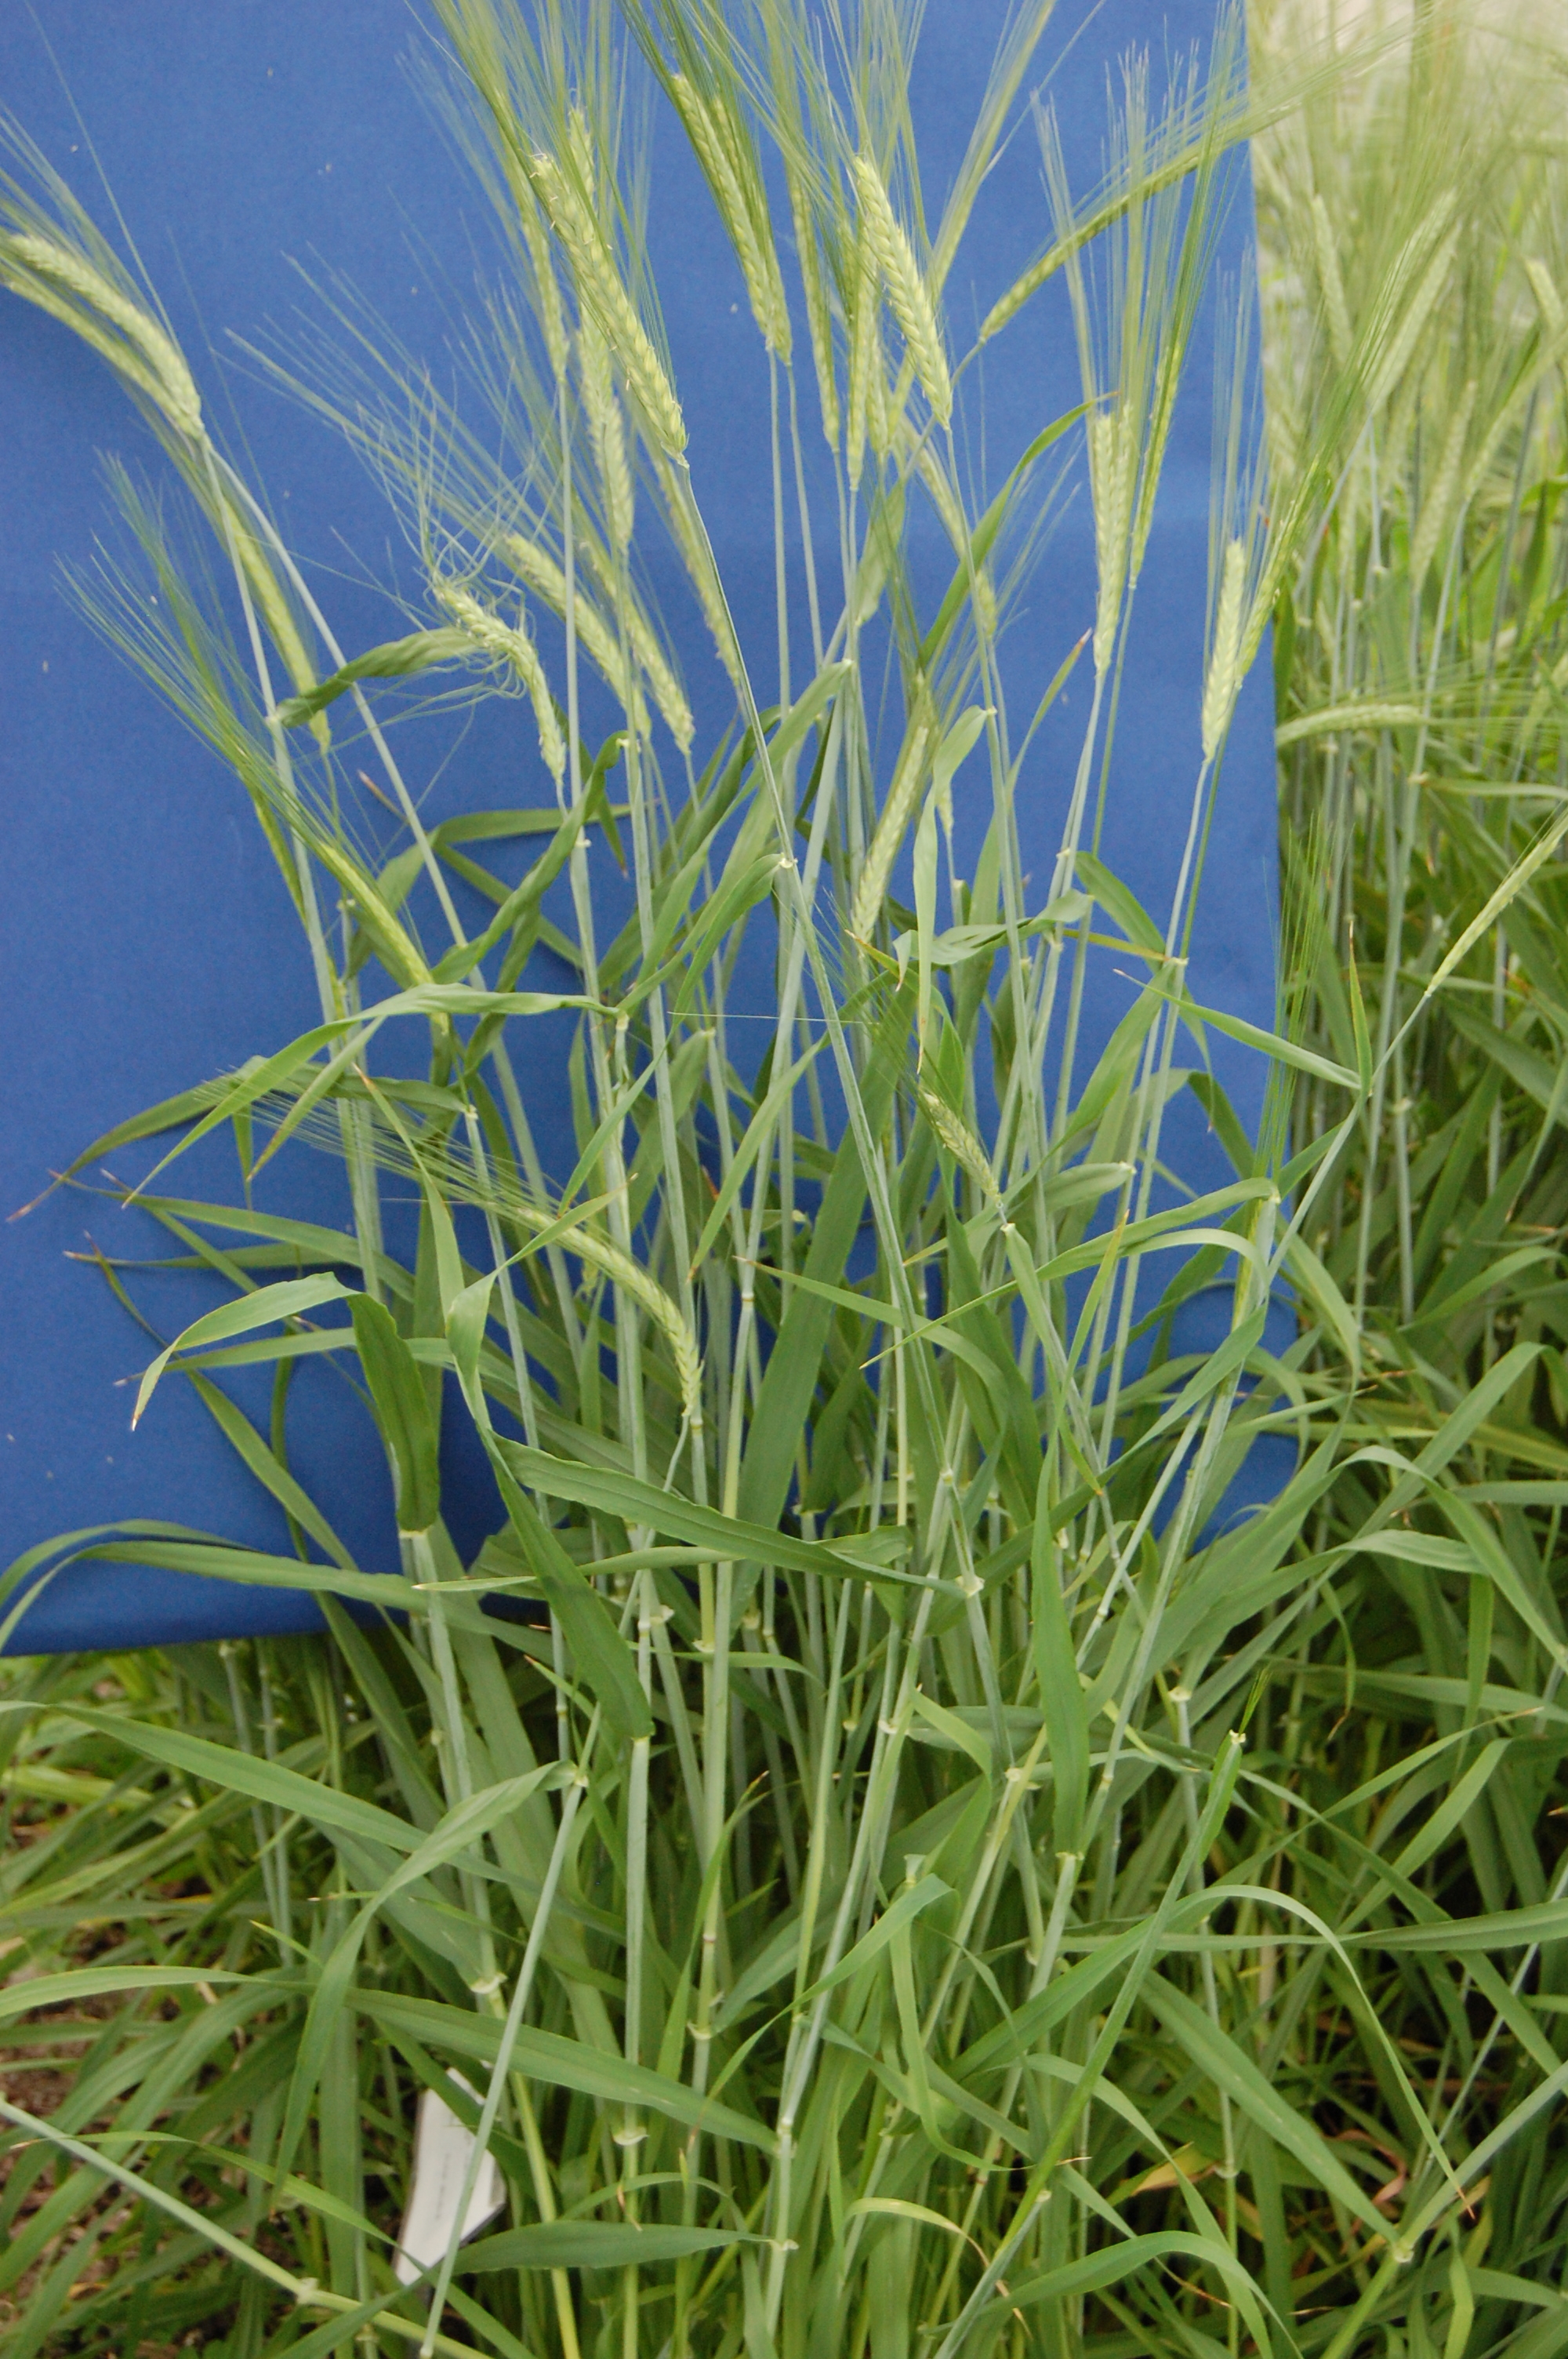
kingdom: Plantae
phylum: Tracheophyta
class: Liliopsida
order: Poales
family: Poaceae
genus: Hordeum
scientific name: Hordeum vulgare
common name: Common barley
